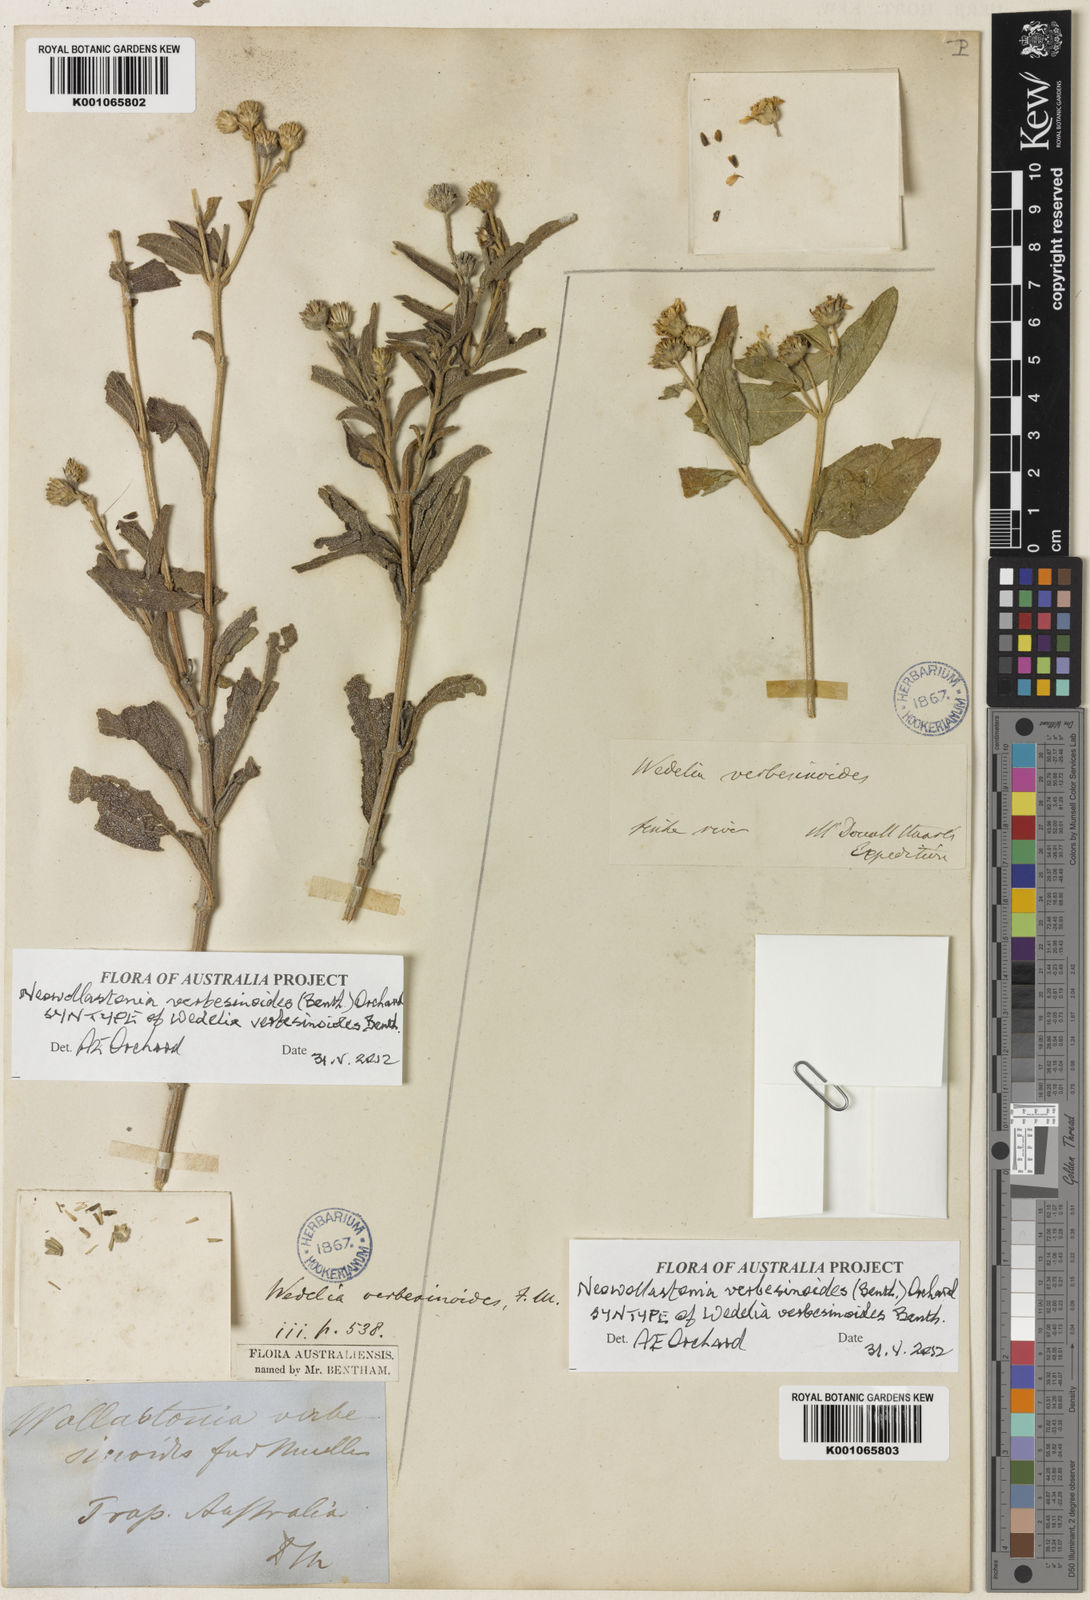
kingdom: Plantae
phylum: Tracheophyta
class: Magnoliopsida
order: Asterales
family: Asteraceae
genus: Apowollastonia
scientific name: Apowollastonia verbesinoides
